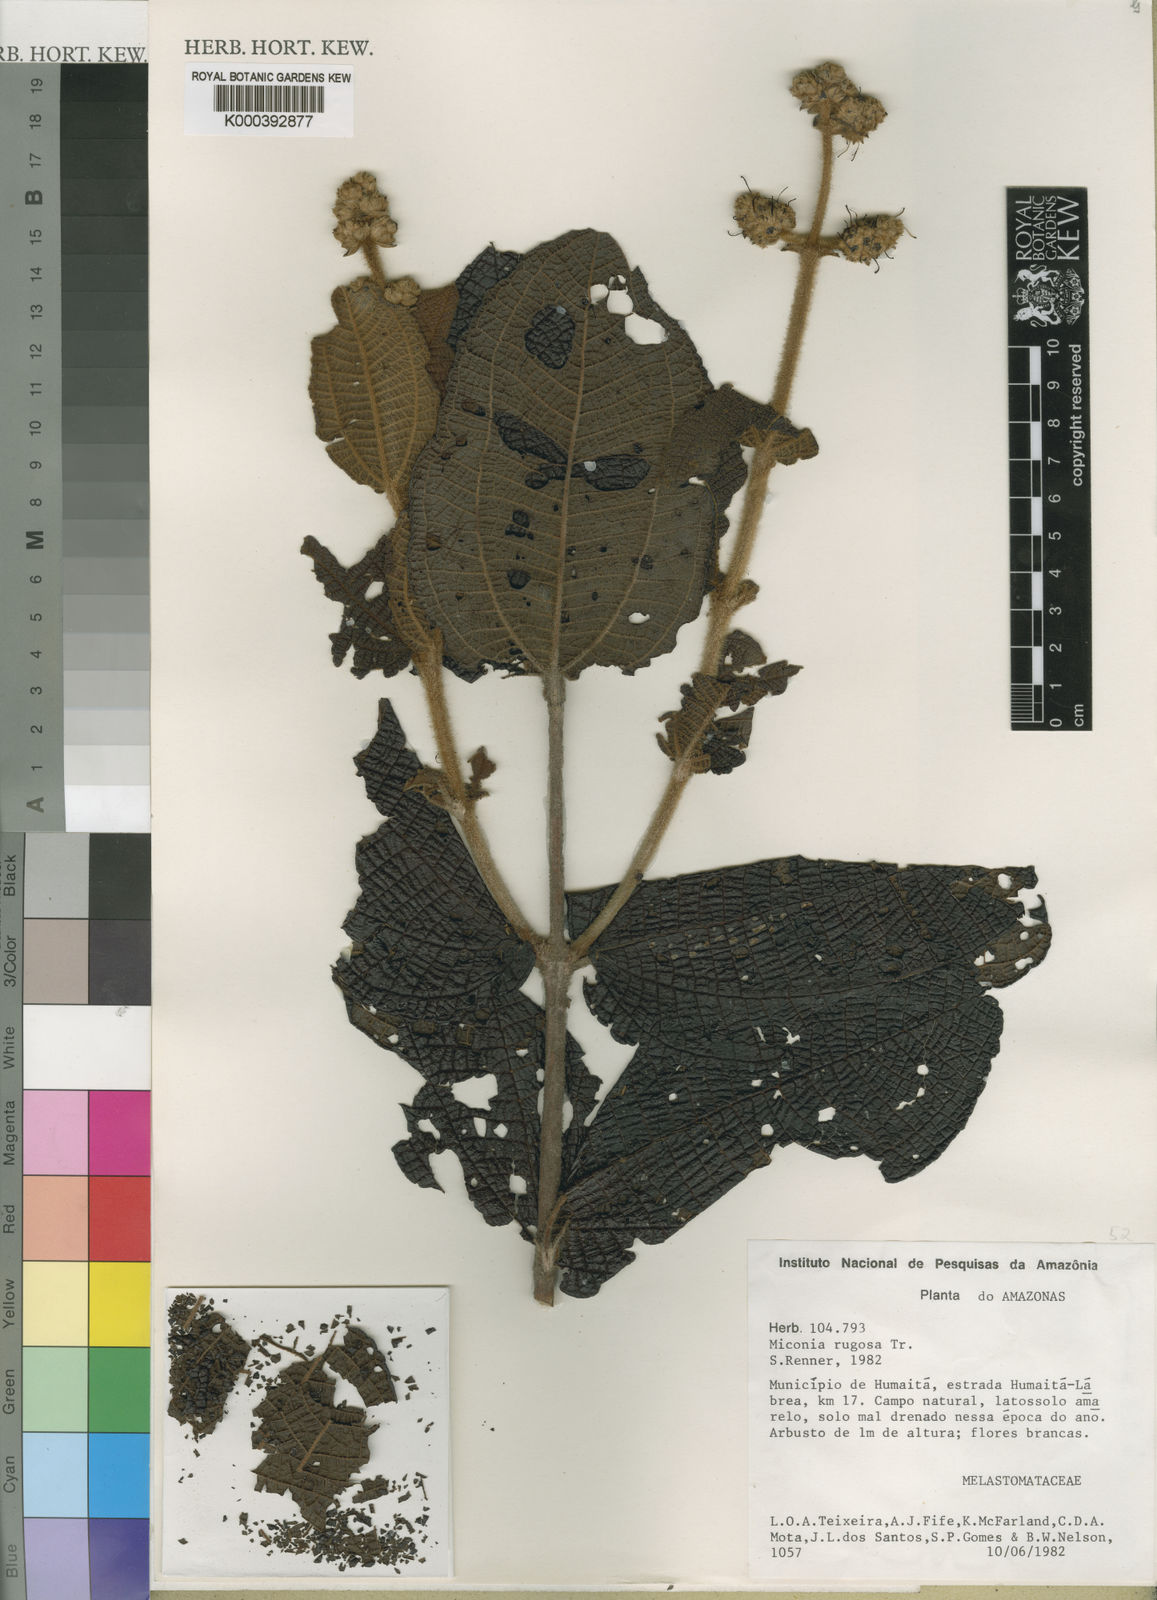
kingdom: Plantae
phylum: Tracheophyta
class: Magnoliopsida
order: Myrtales
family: Melastomataceae
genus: Miconia
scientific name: Miconia rugosa
